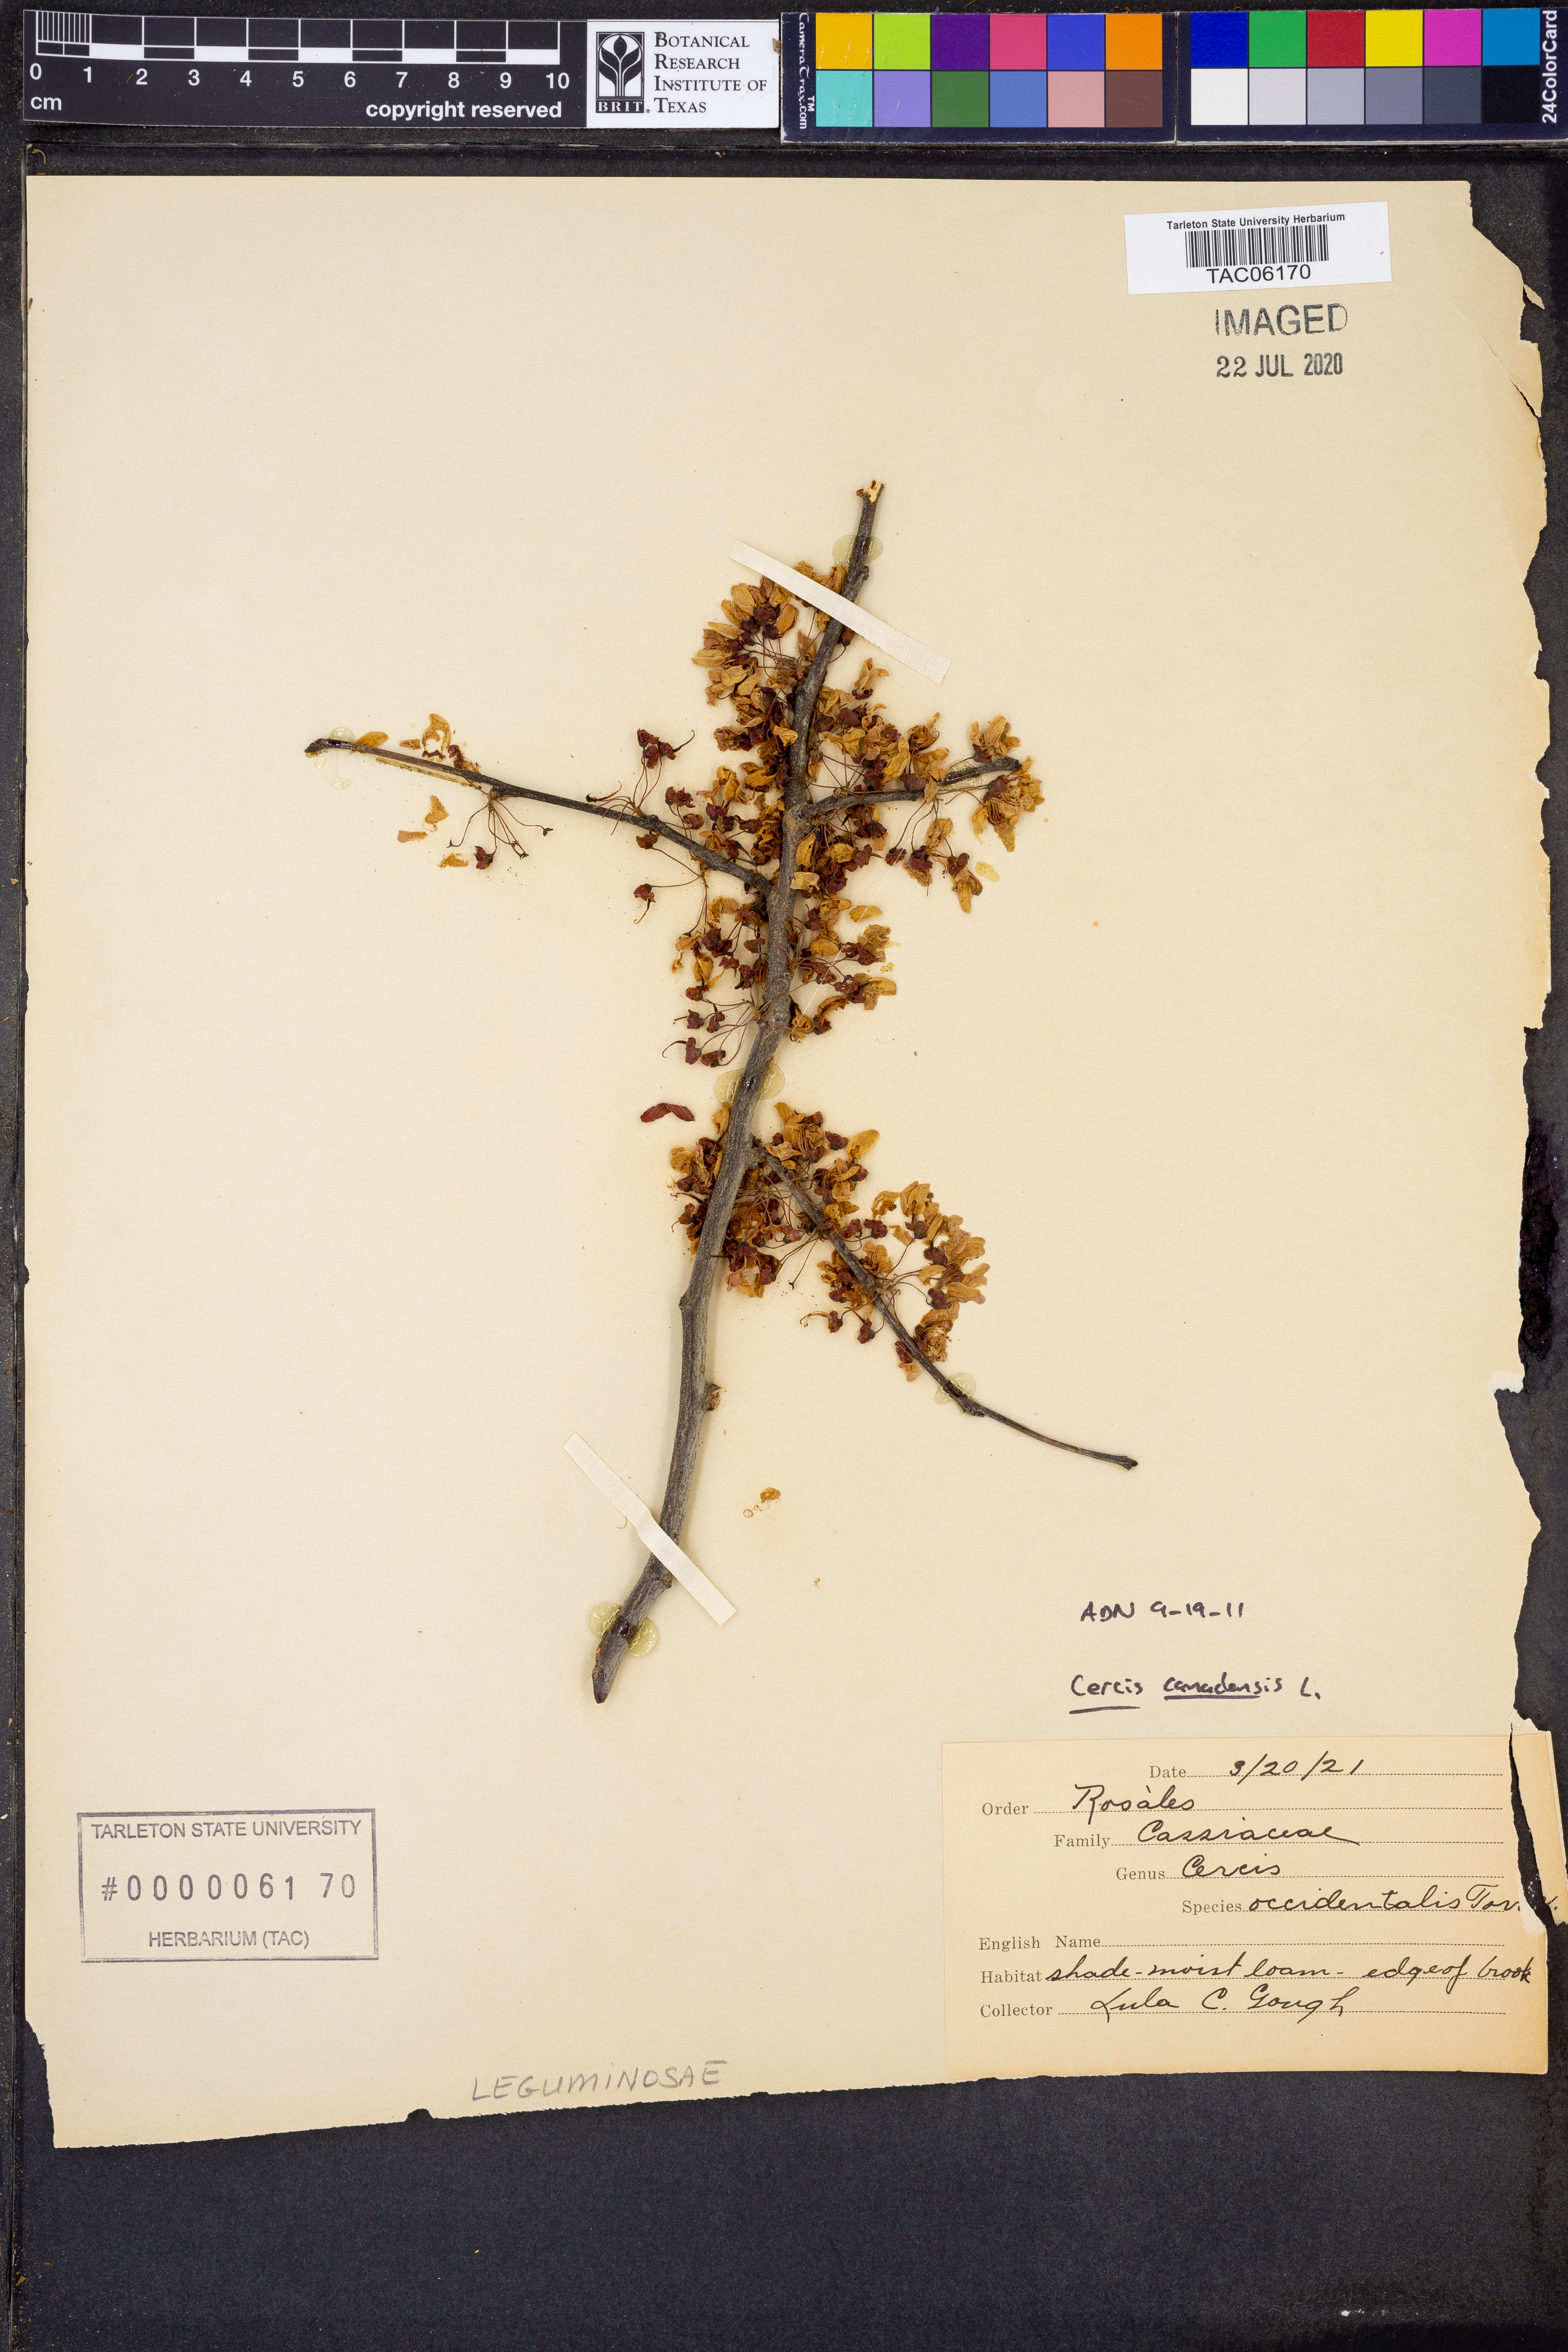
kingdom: Plantae
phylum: Tracheophyta
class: Magnoliopsida
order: Fabales
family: Fabaceae
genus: Cercis
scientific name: Cercis canadensis
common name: Eastern redbud
